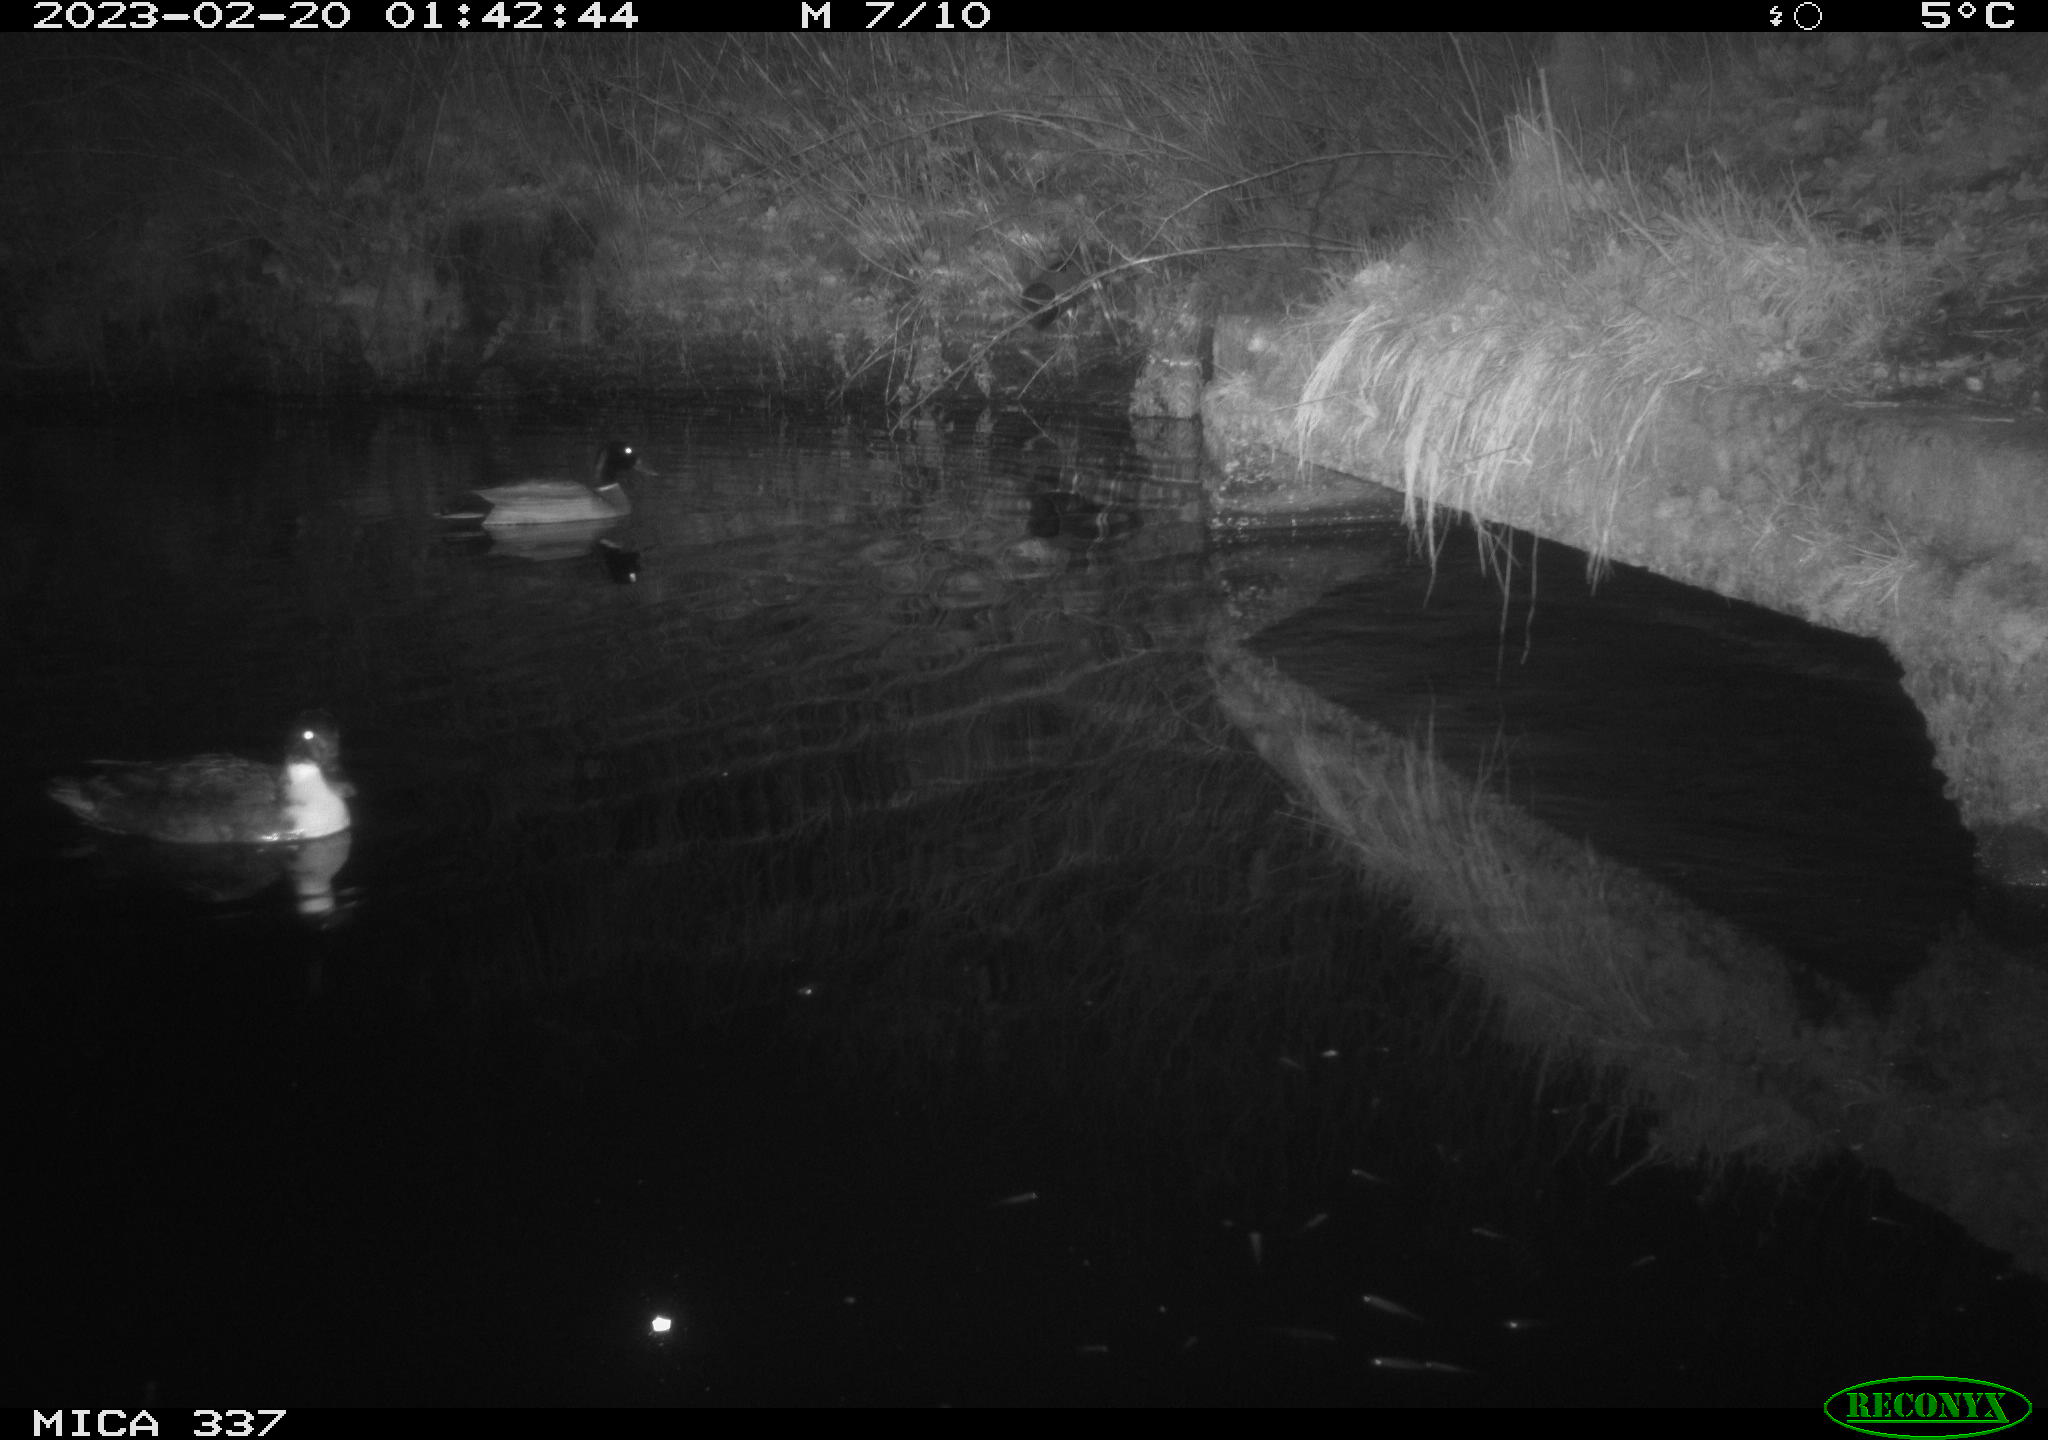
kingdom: Animalia
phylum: Chordata
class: Aves
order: Anseriformes
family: Anatidae
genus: Anas
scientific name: Anas
